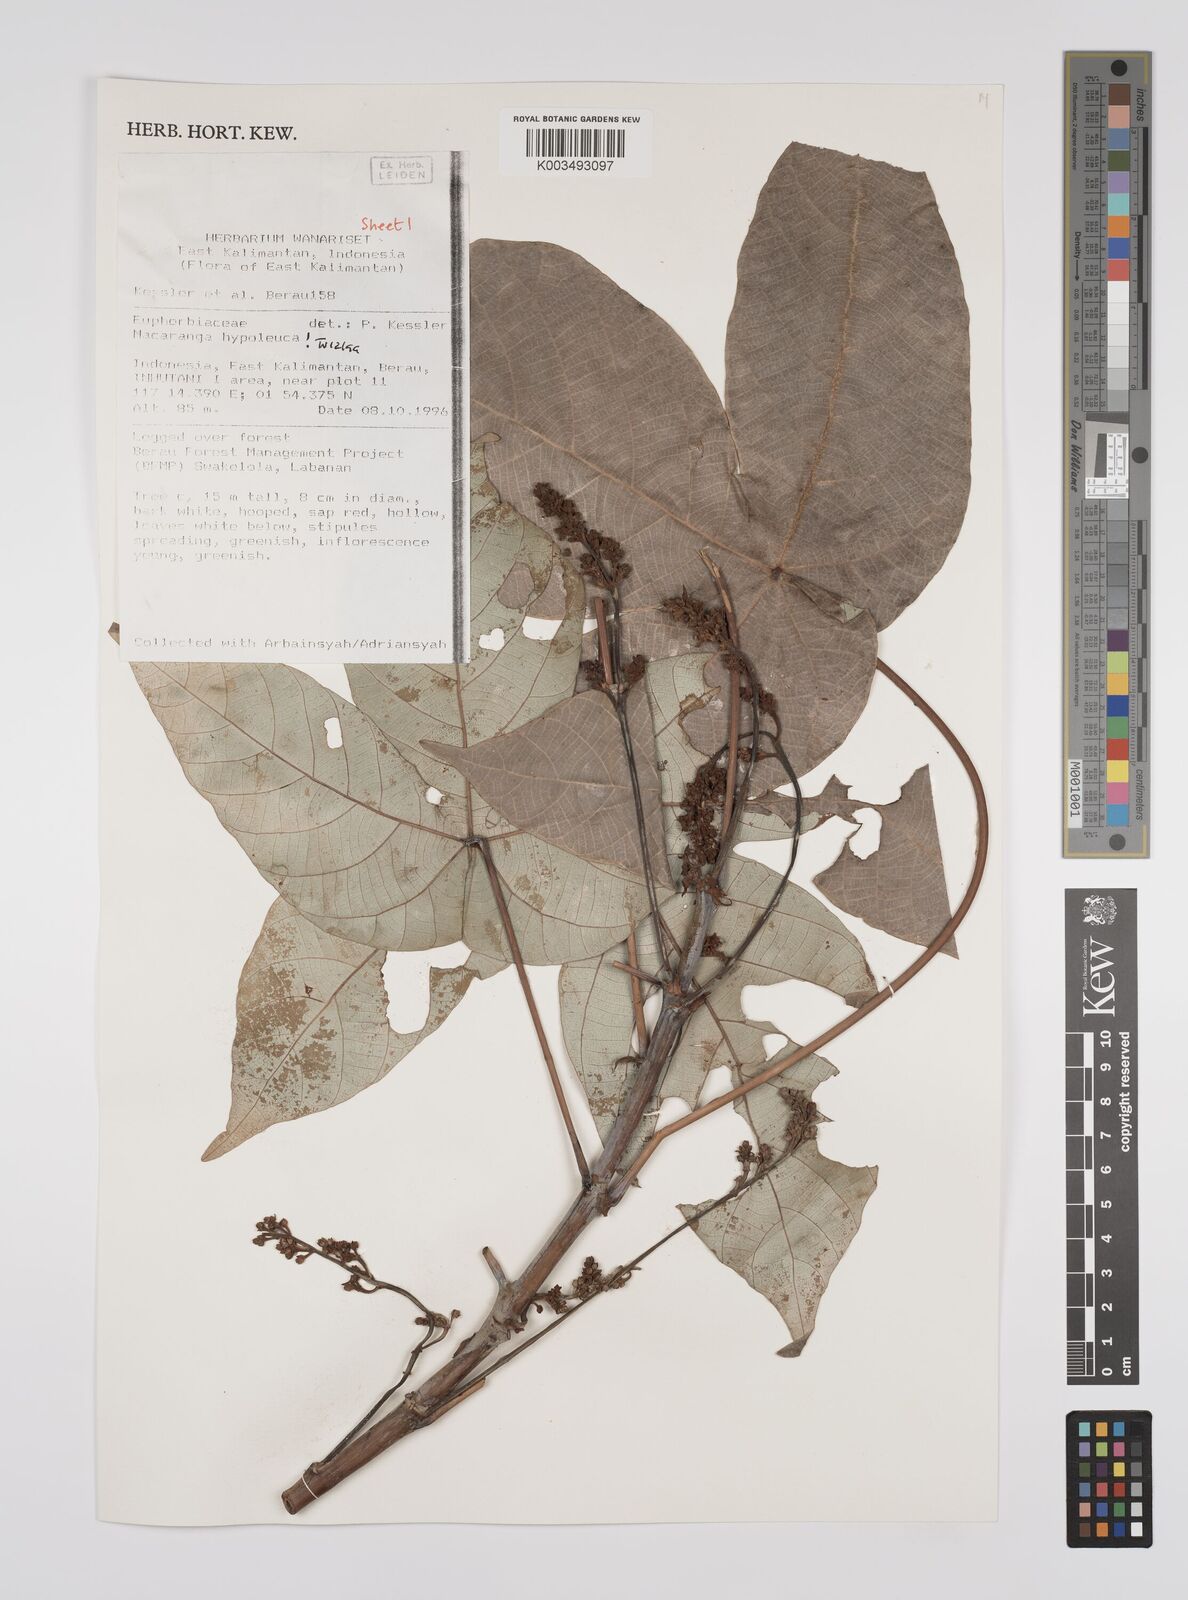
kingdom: Plantae
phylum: Tracheophyta
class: Magnoliopsida
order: Malpighiales
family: Euphorbiaceae
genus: Macaranga
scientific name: Macaranga hypoleuca
